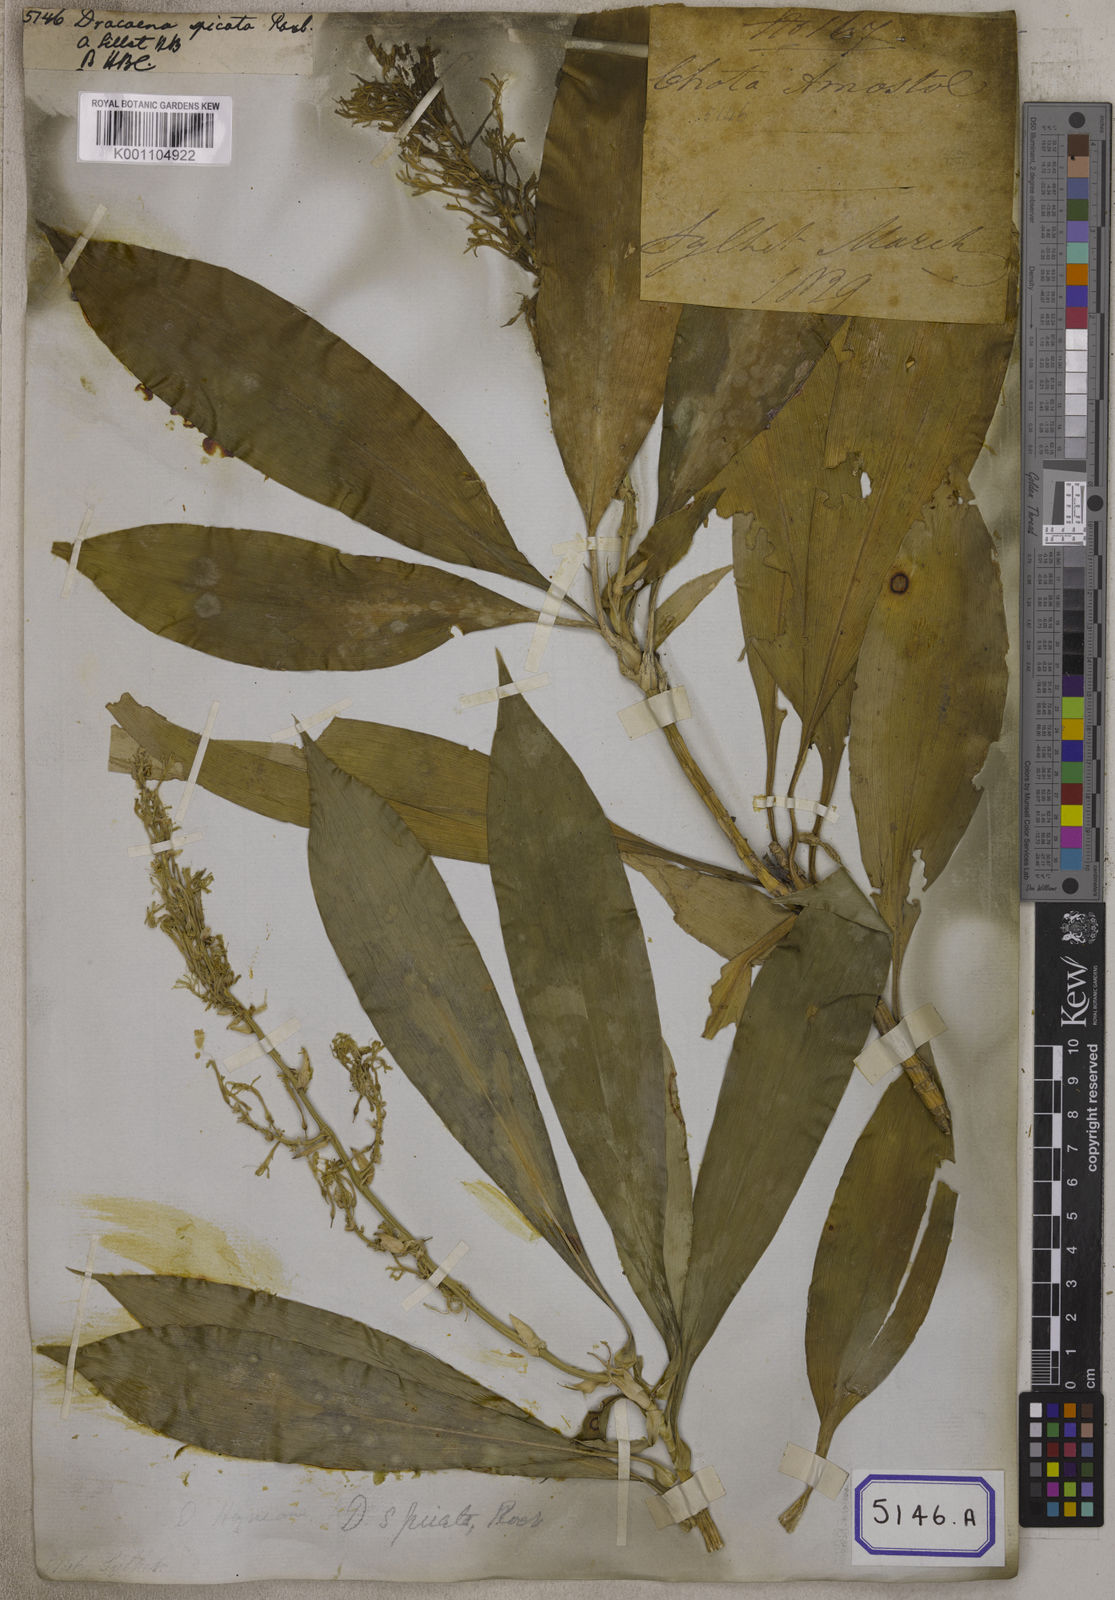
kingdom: Plantae
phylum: Tracheophyta
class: Liliopsida
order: Asparagales
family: Asparagaceae
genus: Dracaena
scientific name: Dracaena spicata
